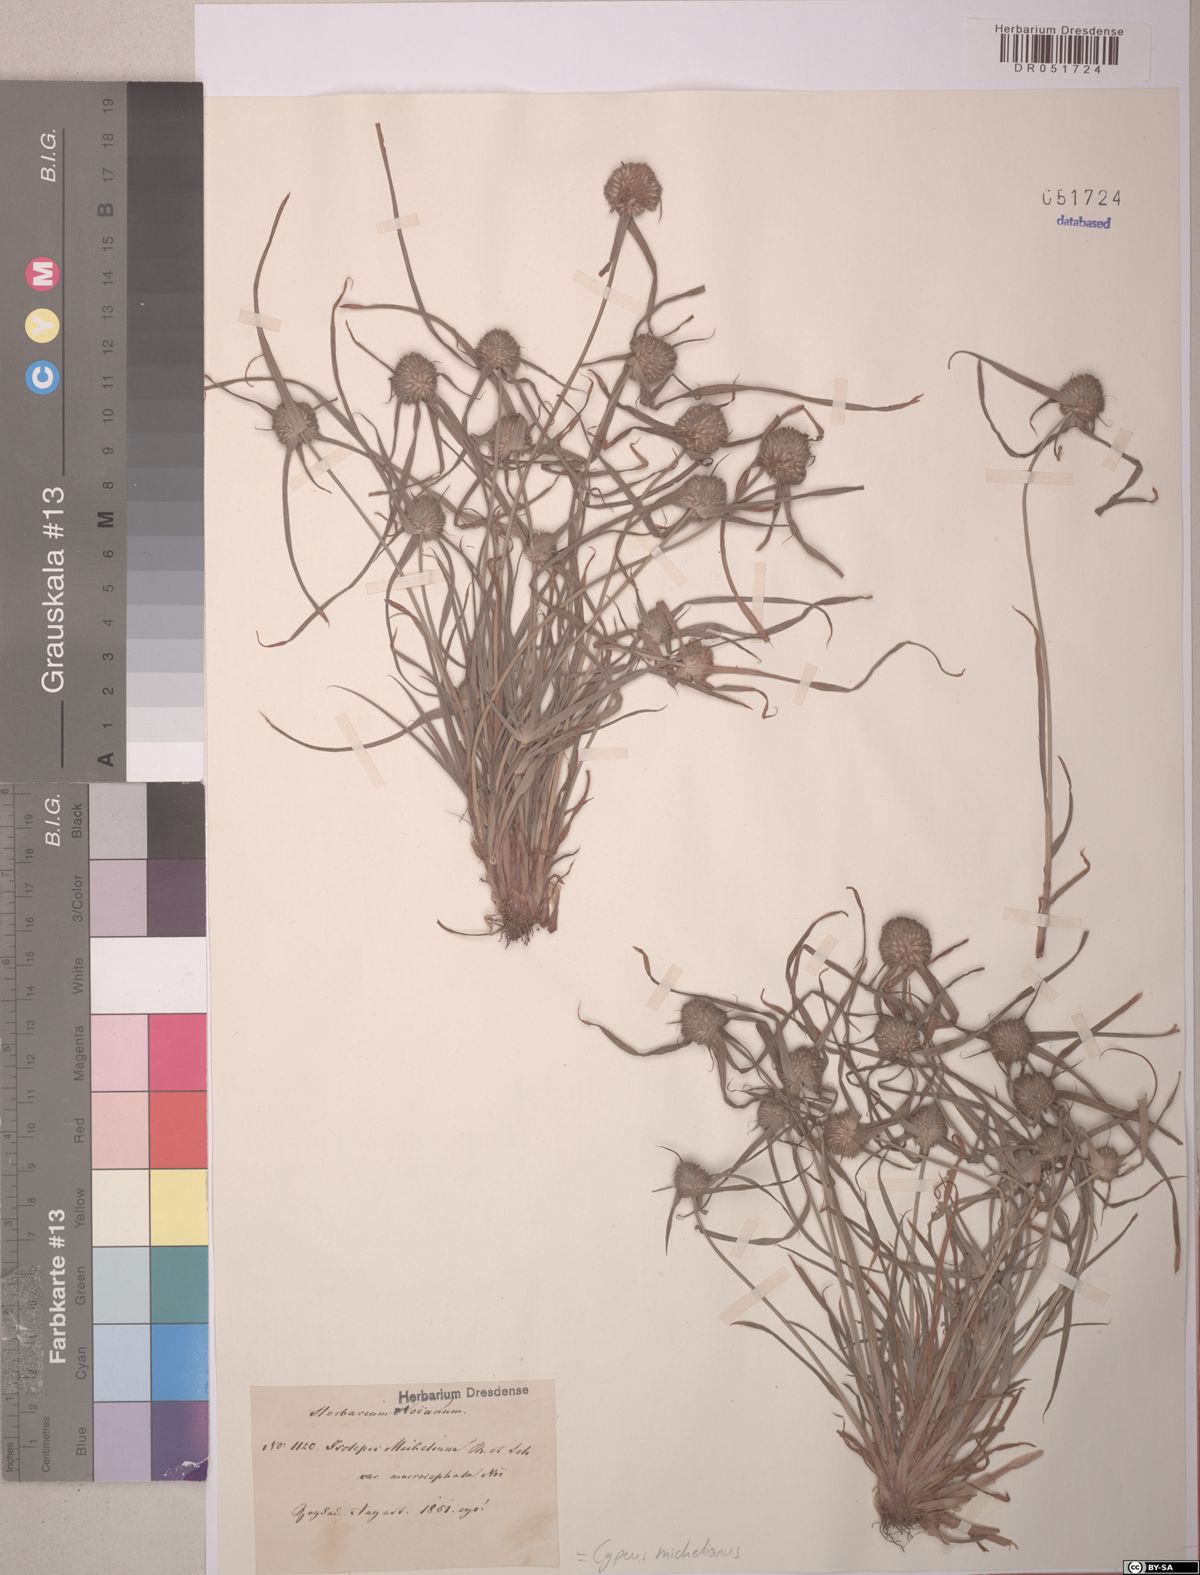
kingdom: Plantae
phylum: Tracheophyta
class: Liliopsida
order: Poales
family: Cyperaceae
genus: Cyperus
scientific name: Cyperus michelianus
